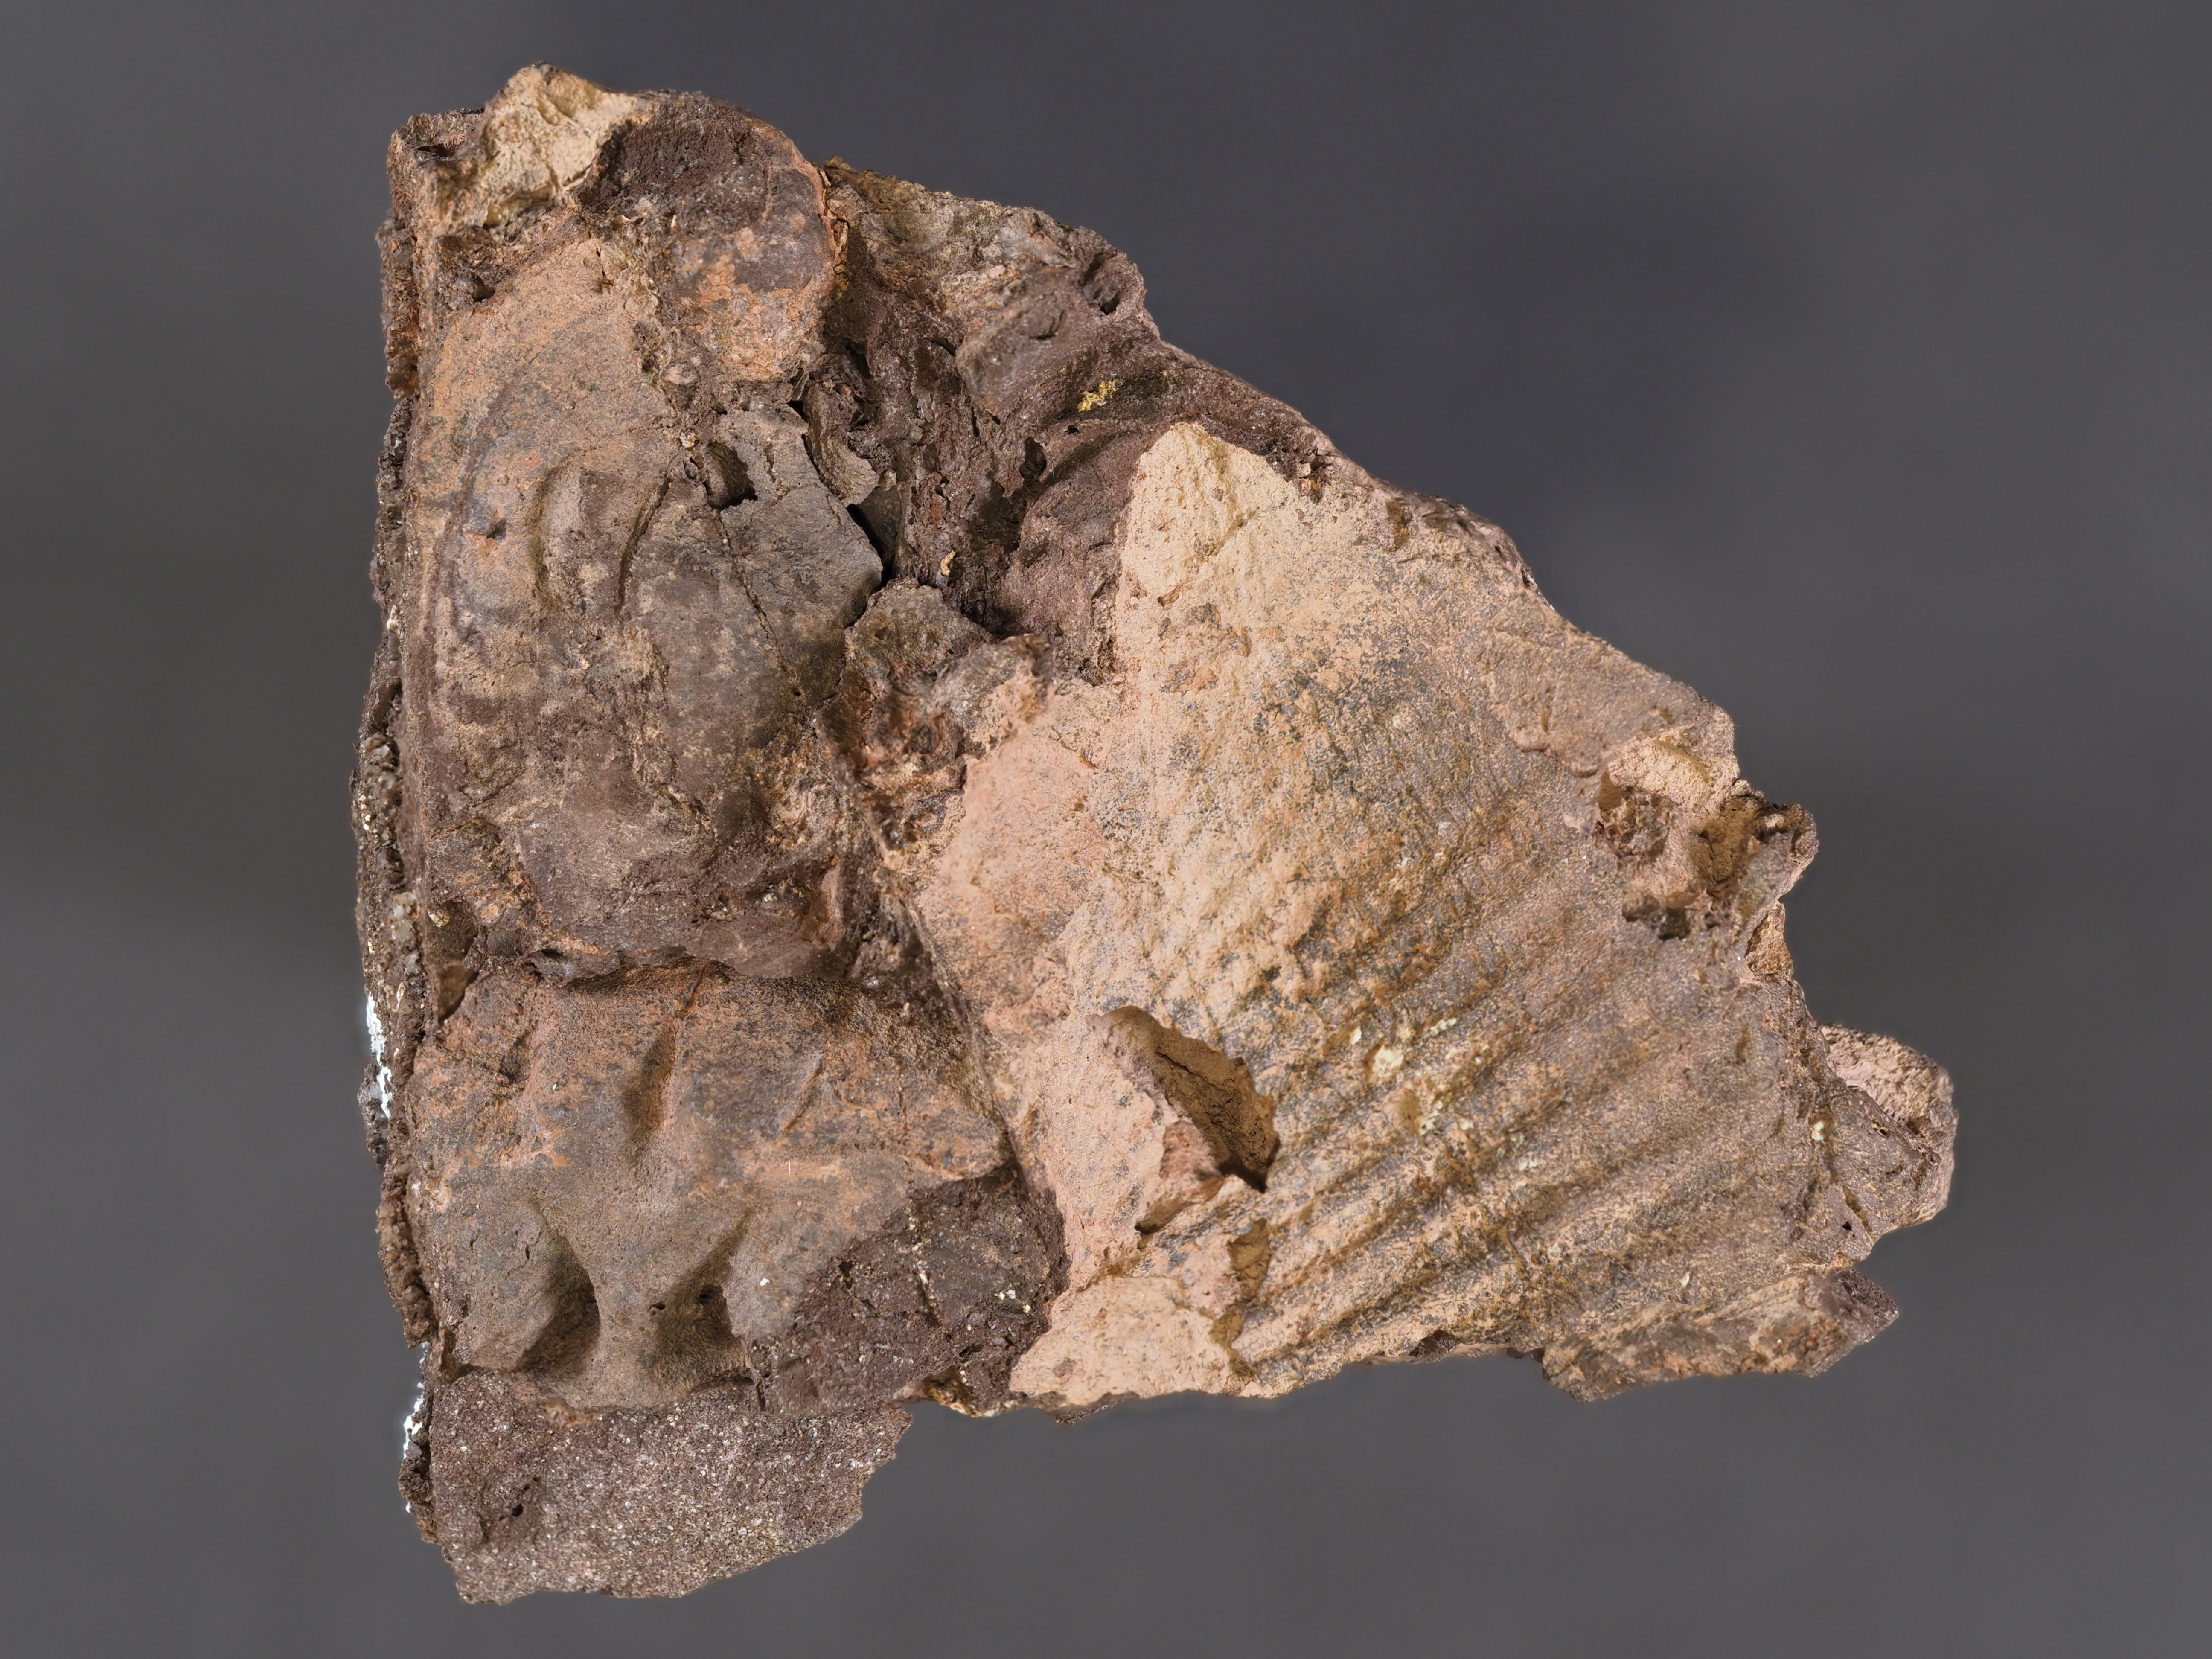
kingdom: Animalia
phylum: Brachiopoda
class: Rhynchonellata
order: Rhynchonellida
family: Uncinulidae
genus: Uncinulus
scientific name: Uncinulus
